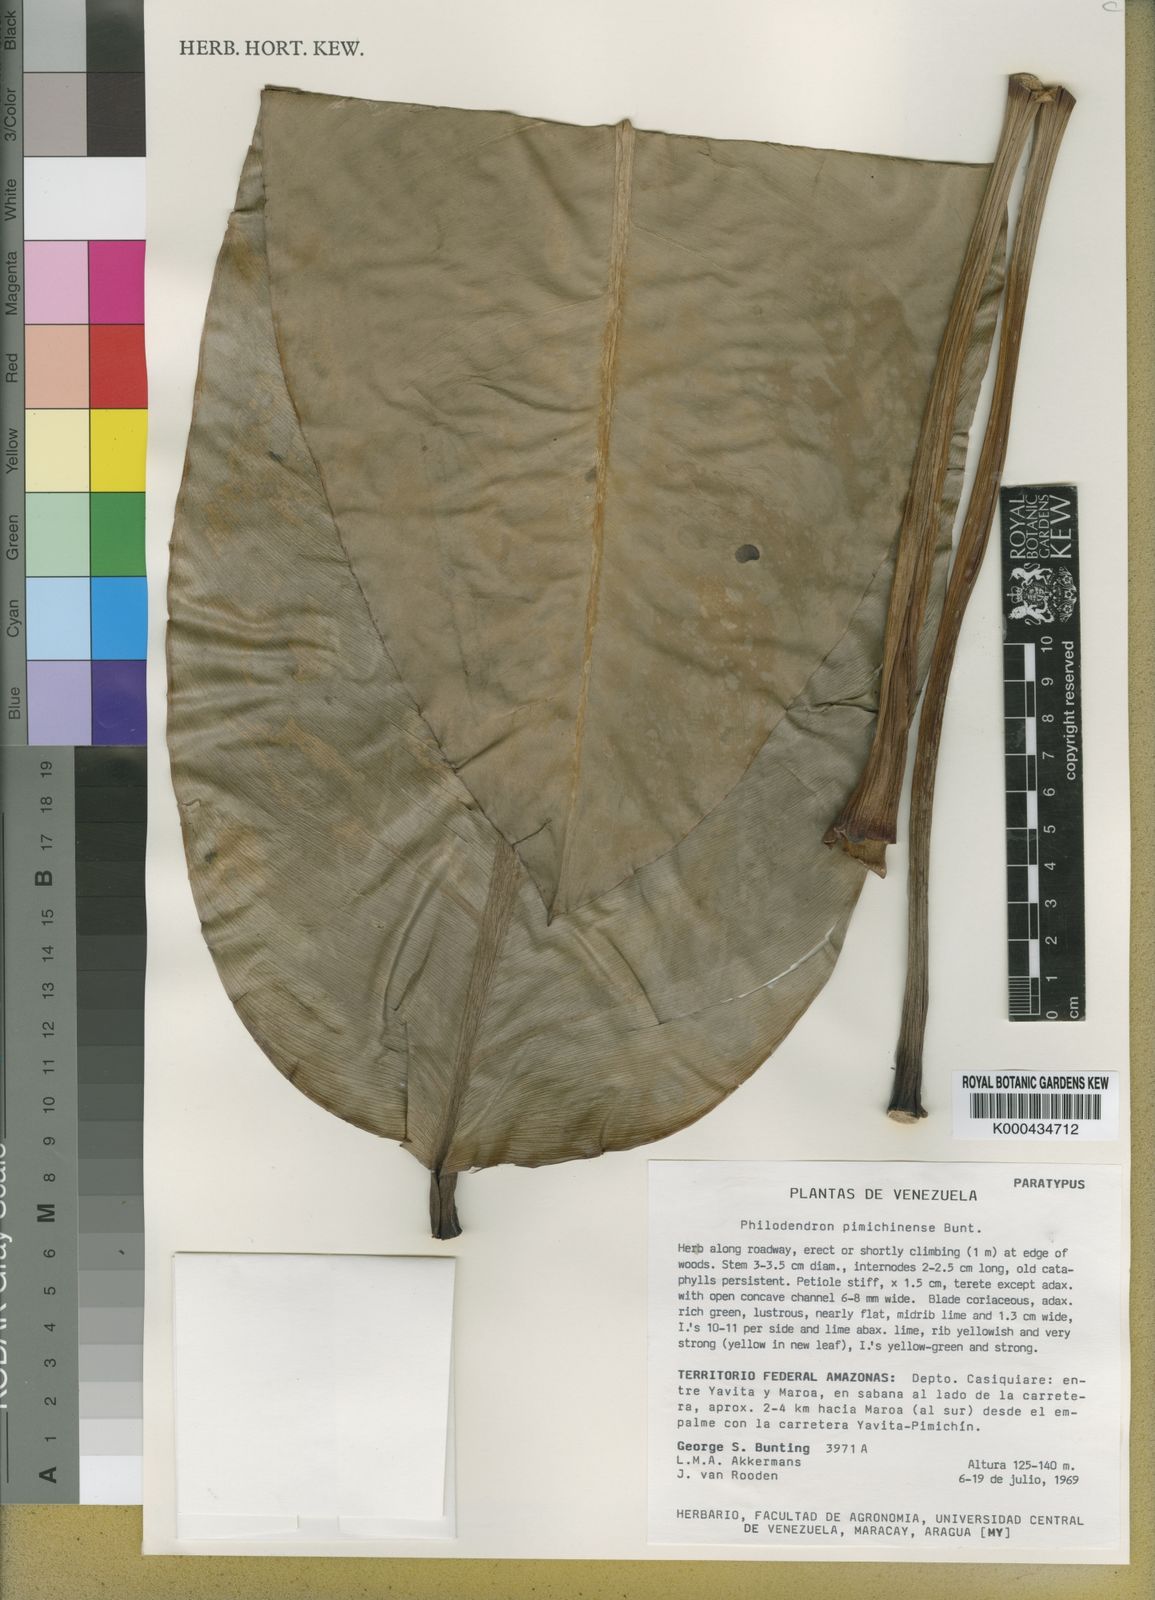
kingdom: Plantae
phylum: Tracheophyta
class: Liliopsida
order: Alismatales
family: Araceae
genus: Philodendron
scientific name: Philodendron
